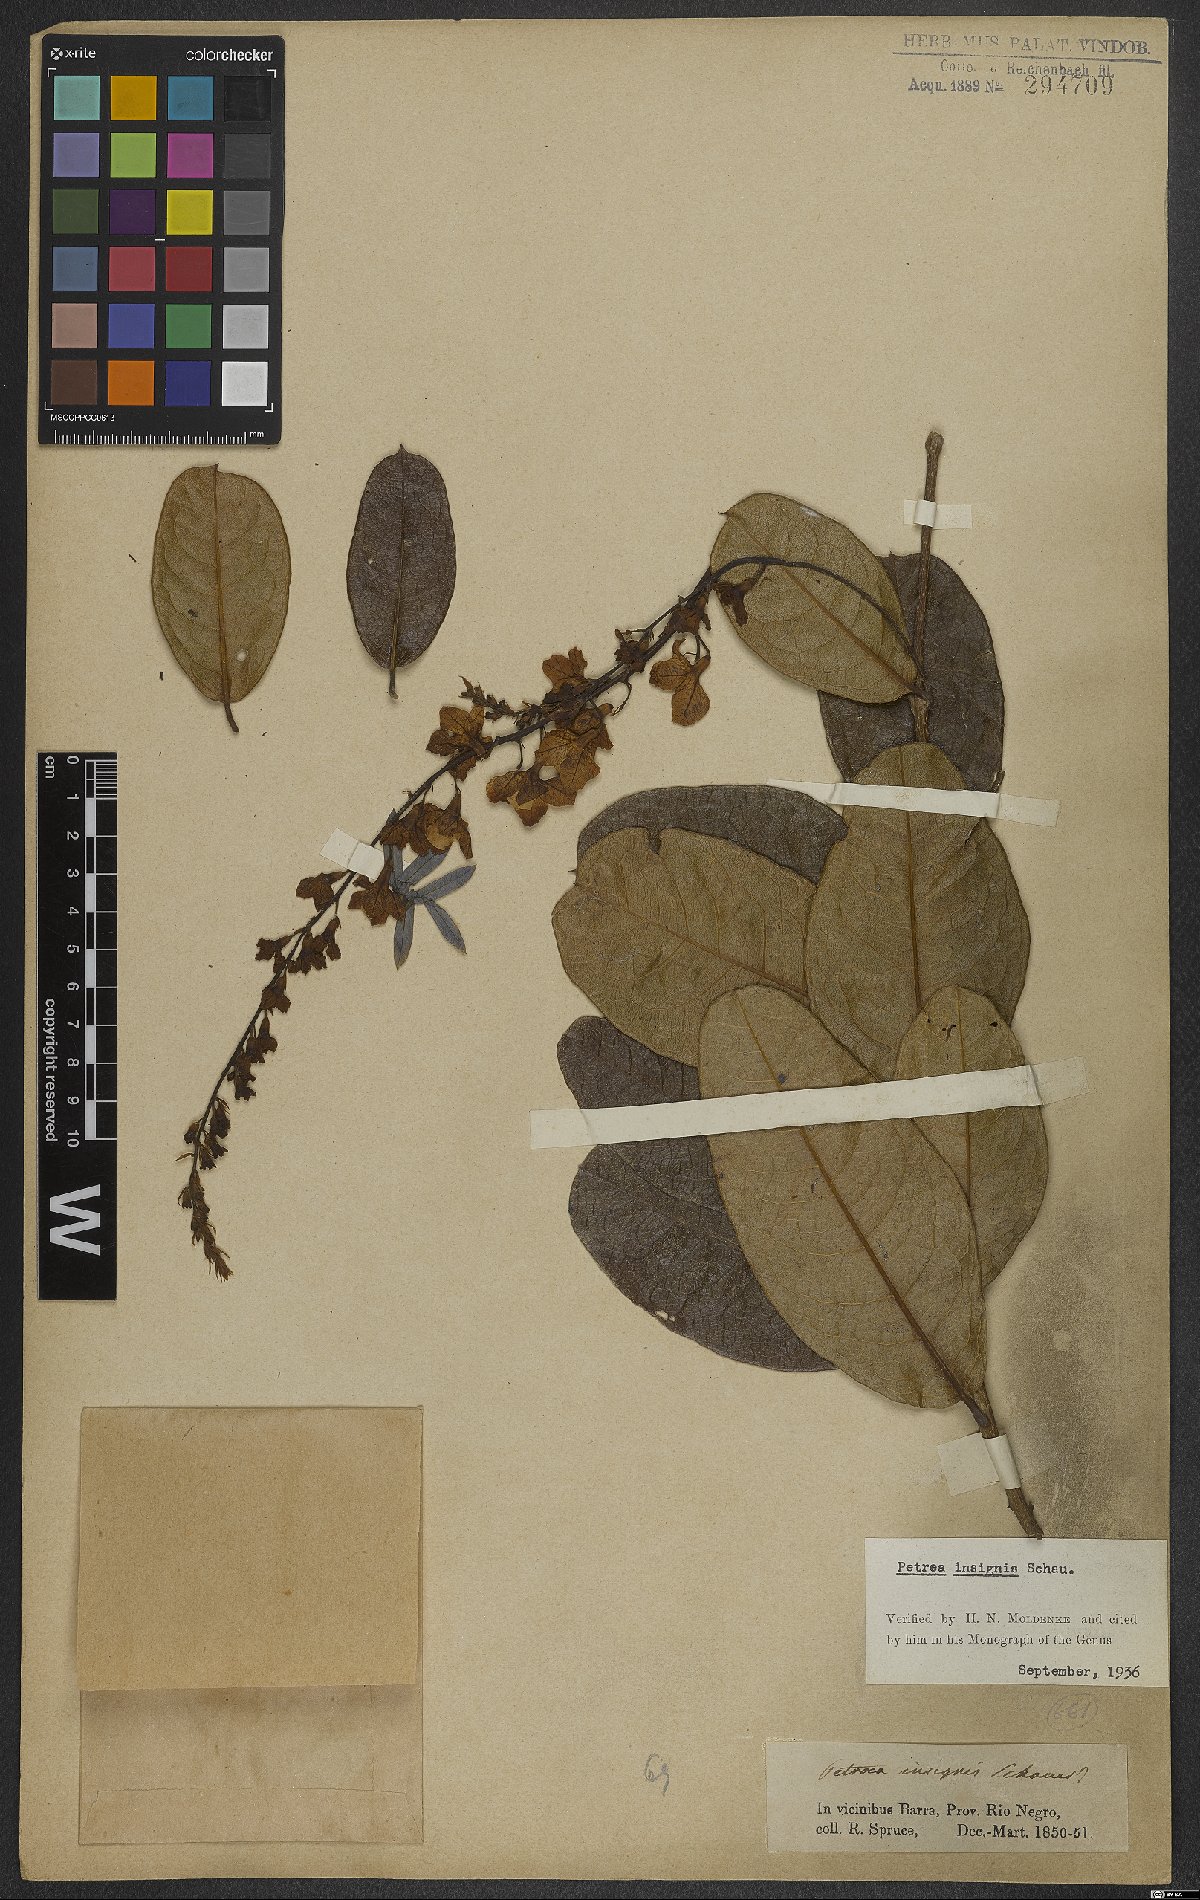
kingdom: Plantae
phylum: Tracheophyta
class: Magnoliopsida
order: Lamiales
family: Verbenaceae
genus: Petrea
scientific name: Petrea insignis
